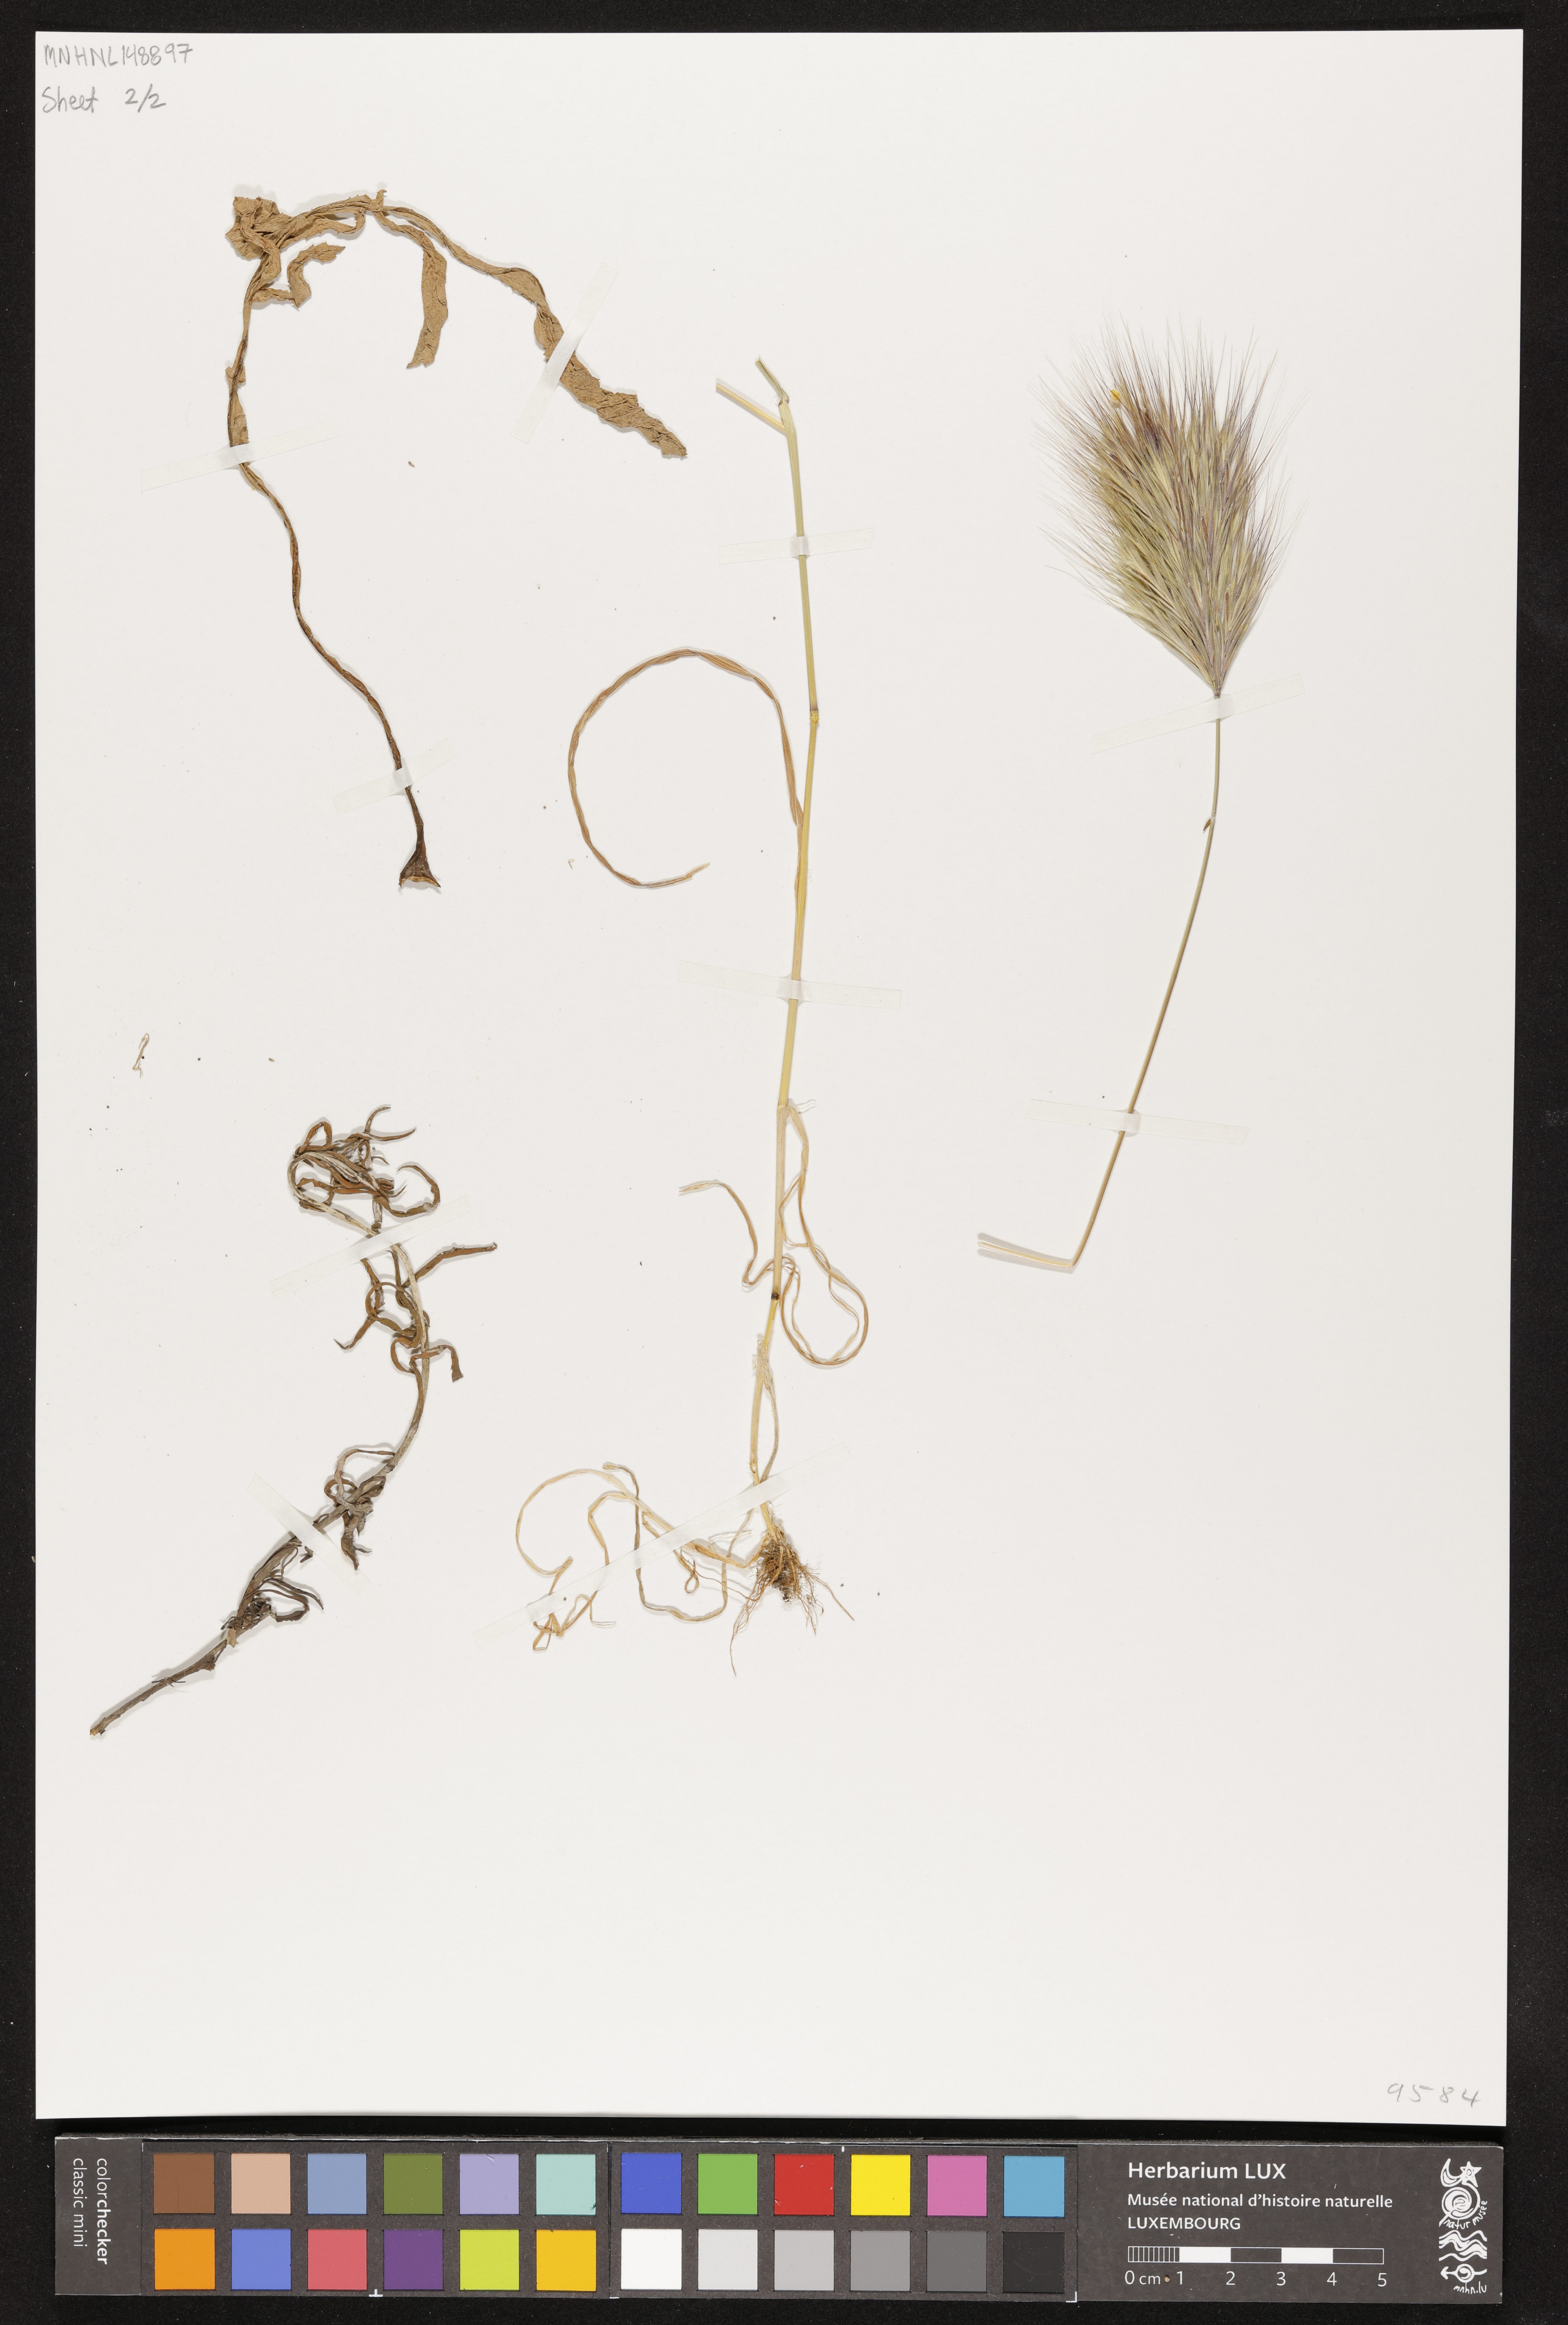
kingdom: Plantae
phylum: Tracheophyta
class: Liliopsida
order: Poales
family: Poaceae
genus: Bromus
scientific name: Bromus
